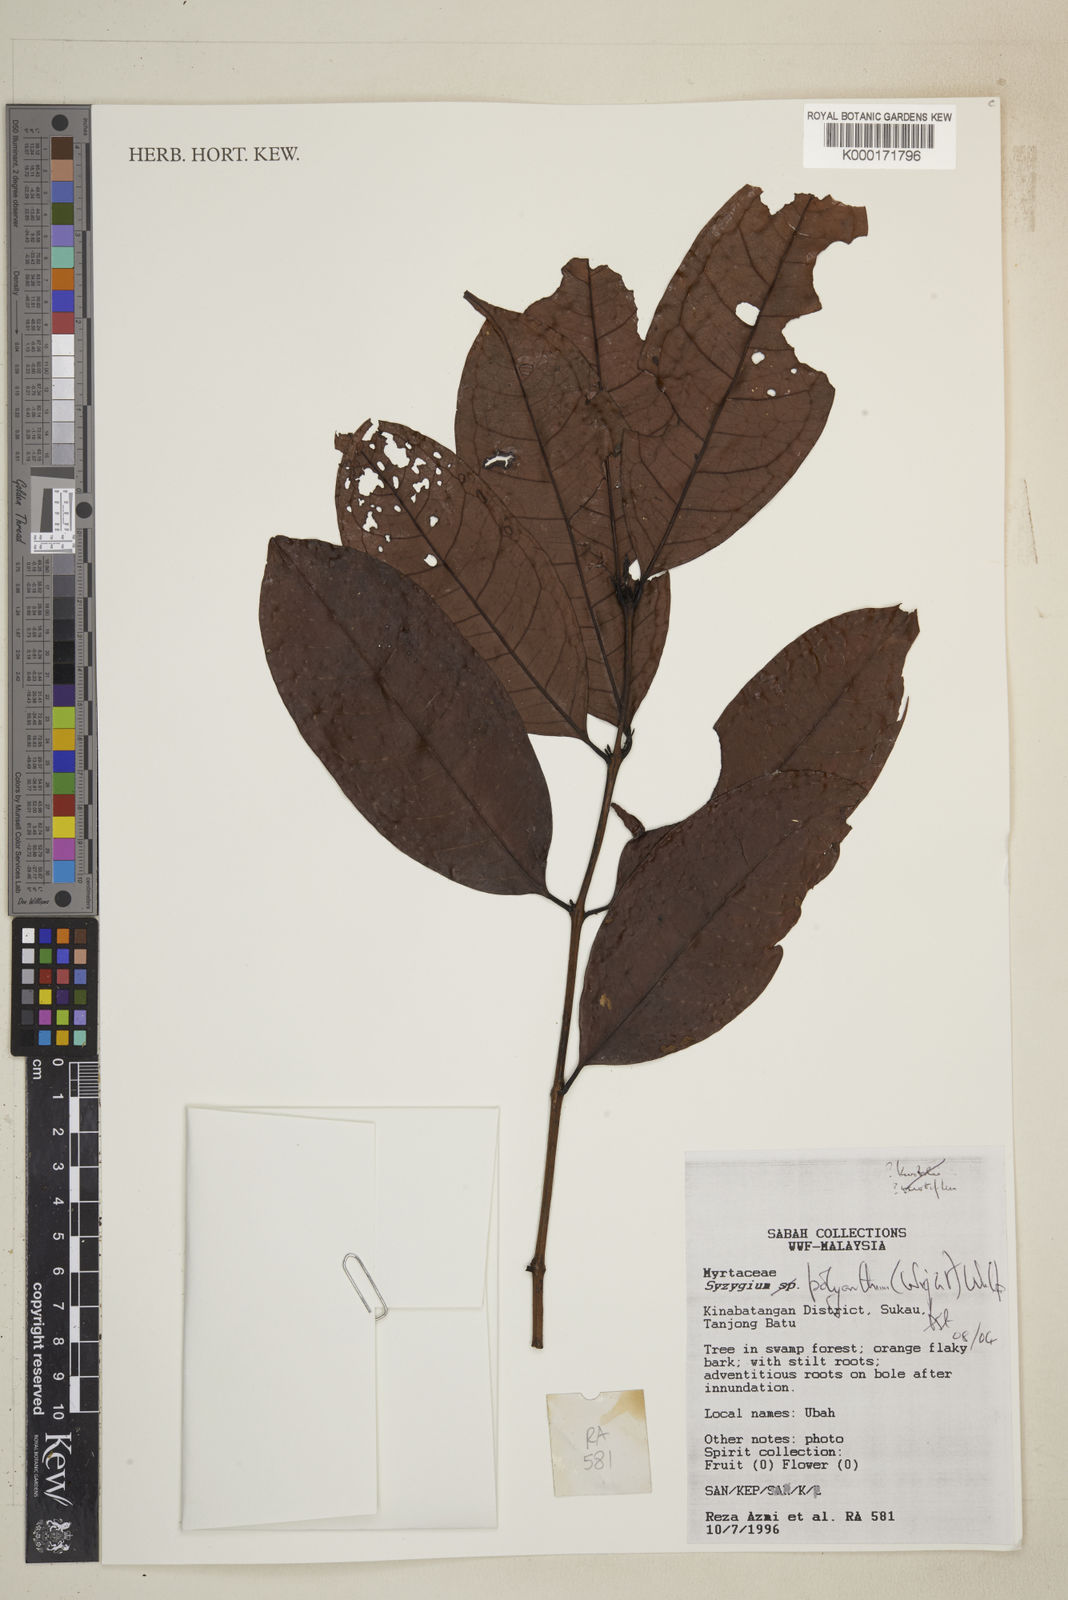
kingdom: Plantae
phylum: Tracheophyta
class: Magnoliopsida
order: Myrtales
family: Myrtaceae
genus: Syzygium
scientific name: Syzygium polyanthum
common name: Indonesian bayleaf
